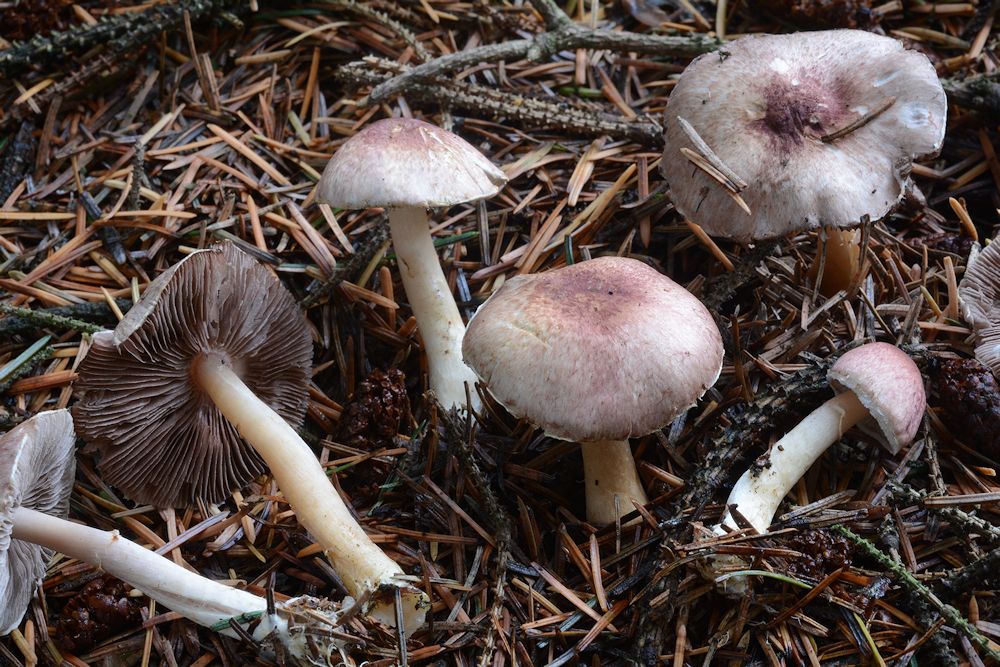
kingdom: Fungi
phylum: Basidiomycota
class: Agaricomycetes
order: Agaricales
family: Agaricaceae
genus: Agaricus
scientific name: Agaricus dulcidulus
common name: blegrød champignon
